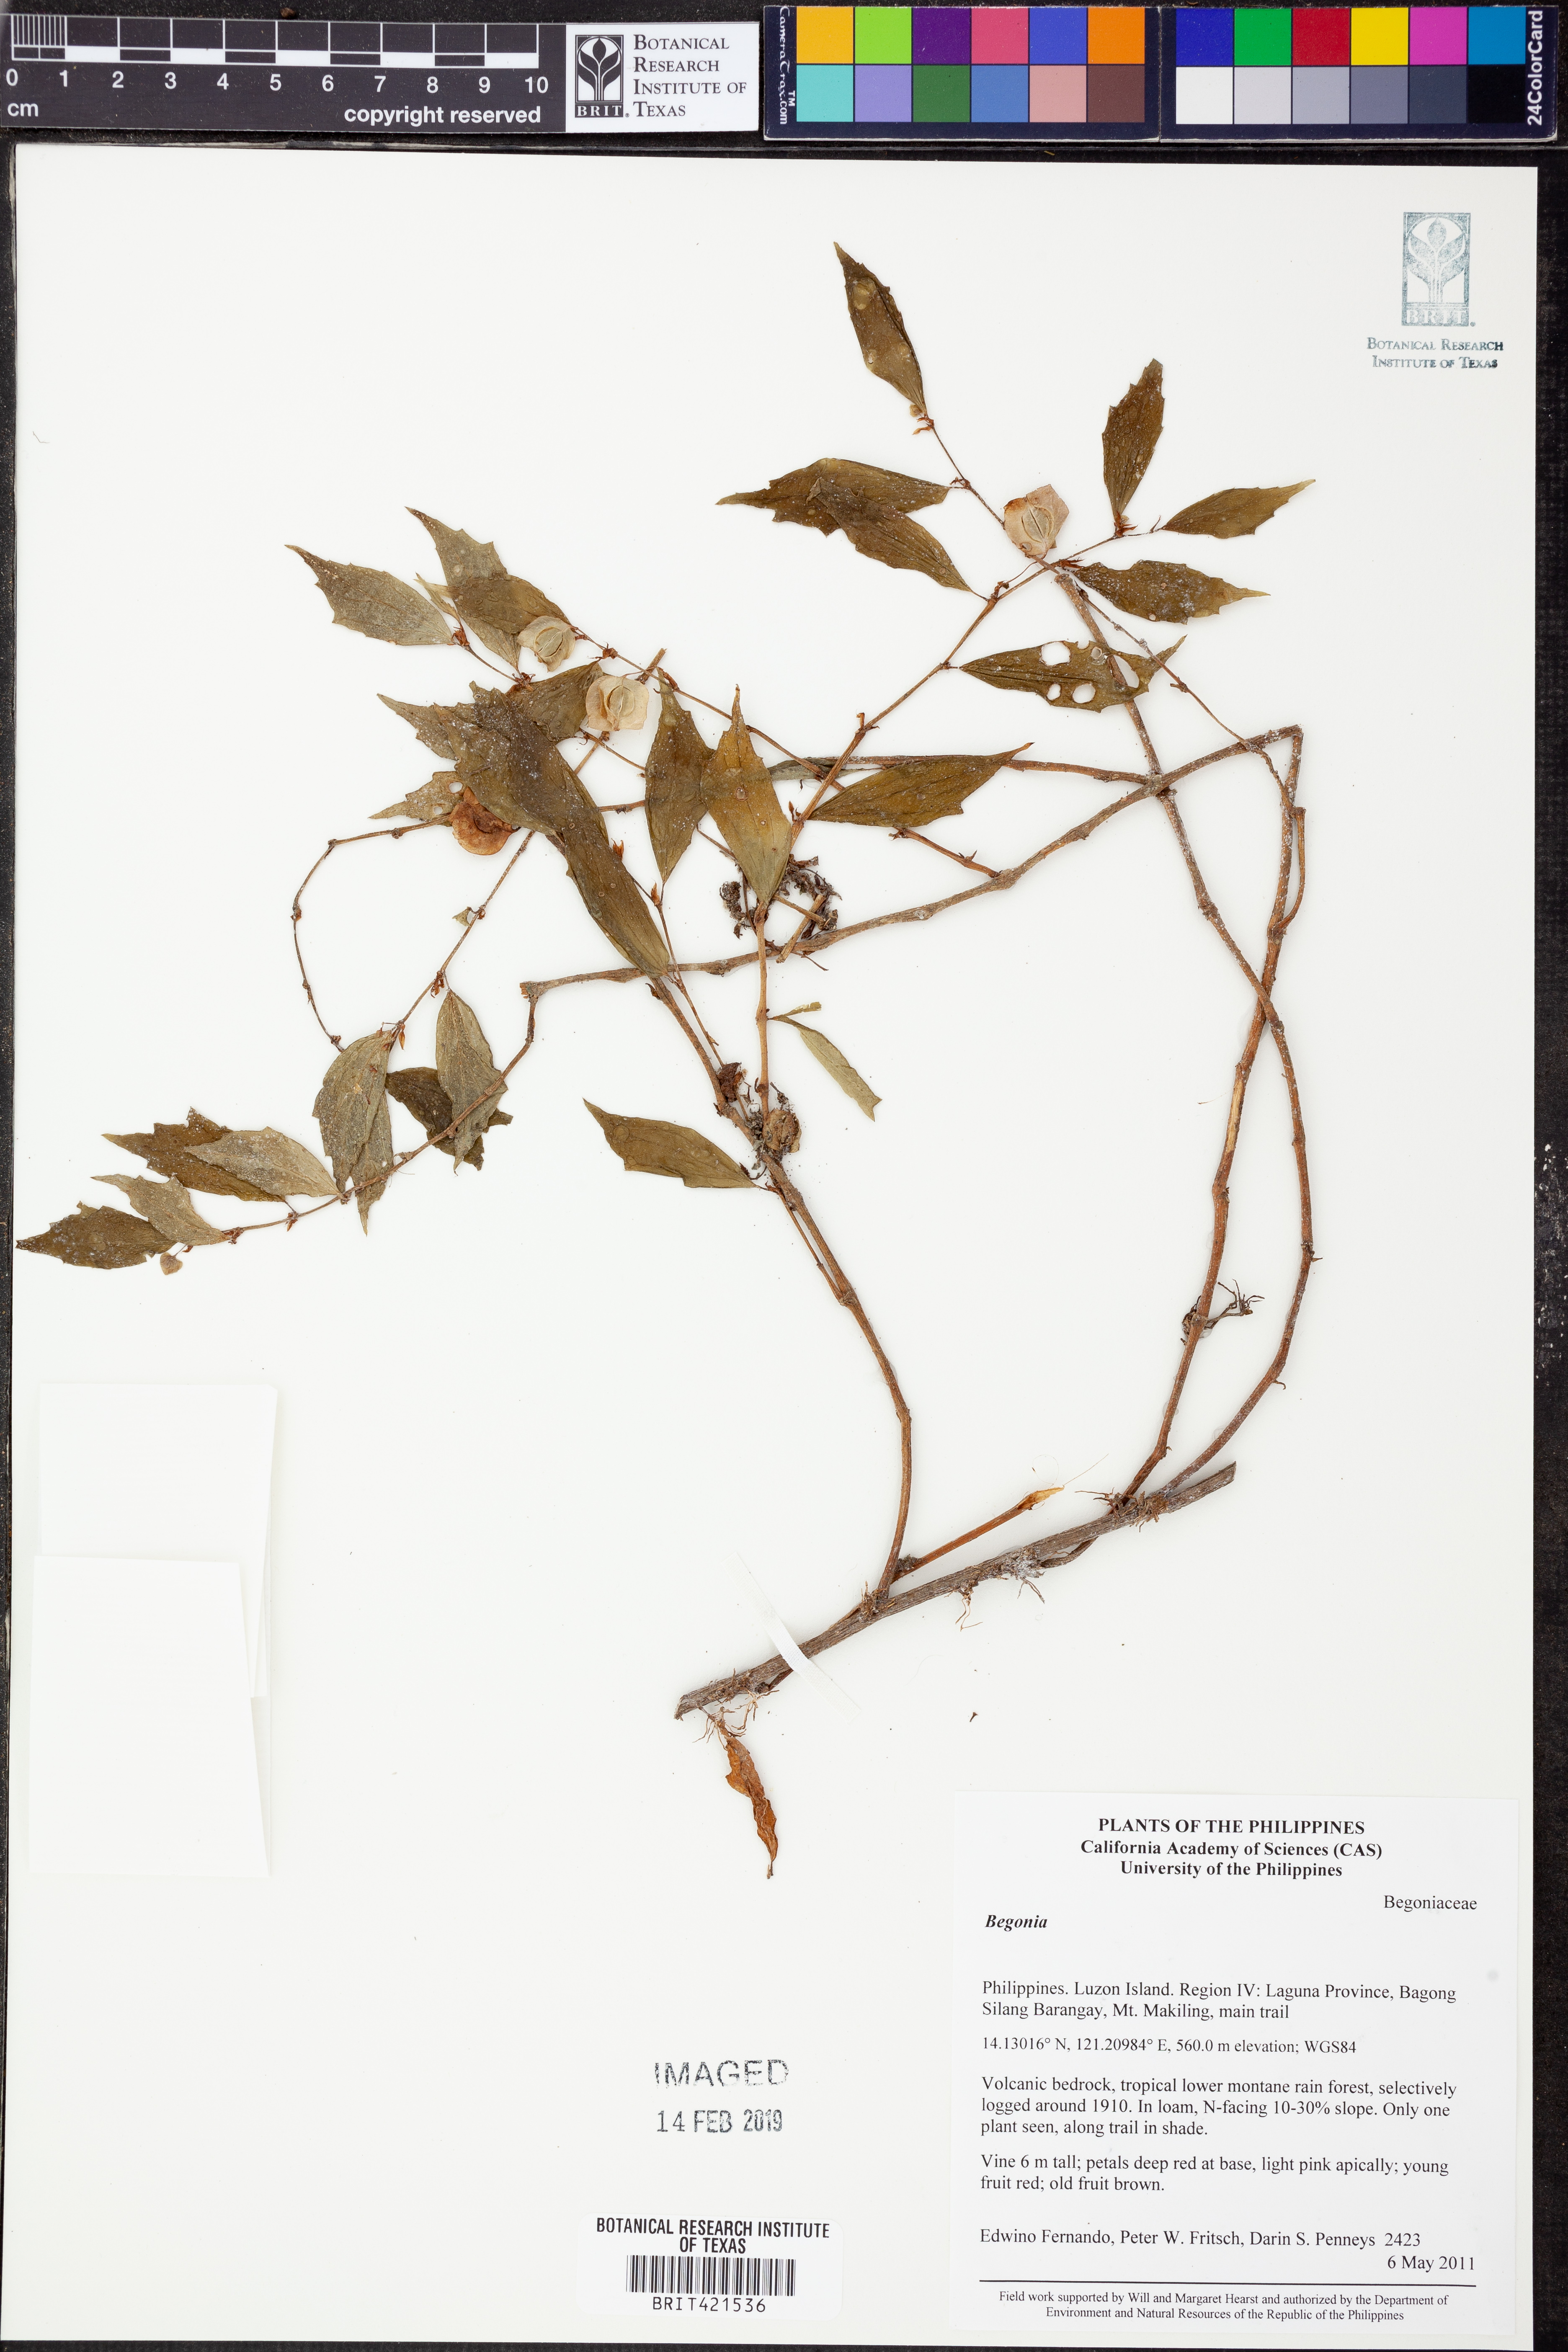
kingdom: Plantae
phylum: Tracheophyta
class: Magnoliopsida
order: Cucurbitales
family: Begoniaceae
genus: Begonia
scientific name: Begonia
